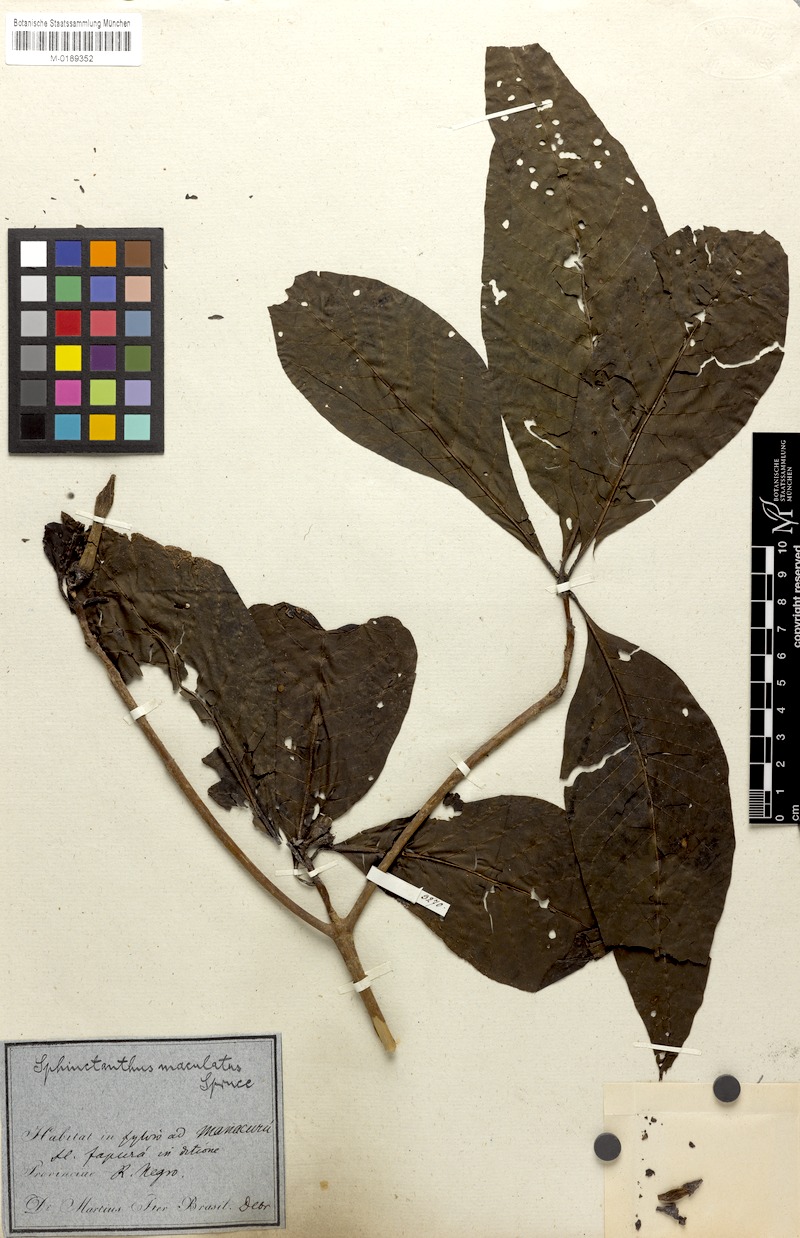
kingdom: Plantae
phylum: Tracheophyta
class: Magnoliopsida
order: Gentianales
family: Rubiaceae
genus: Sphinctanthus
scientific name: Sphinctanthus maculatus
